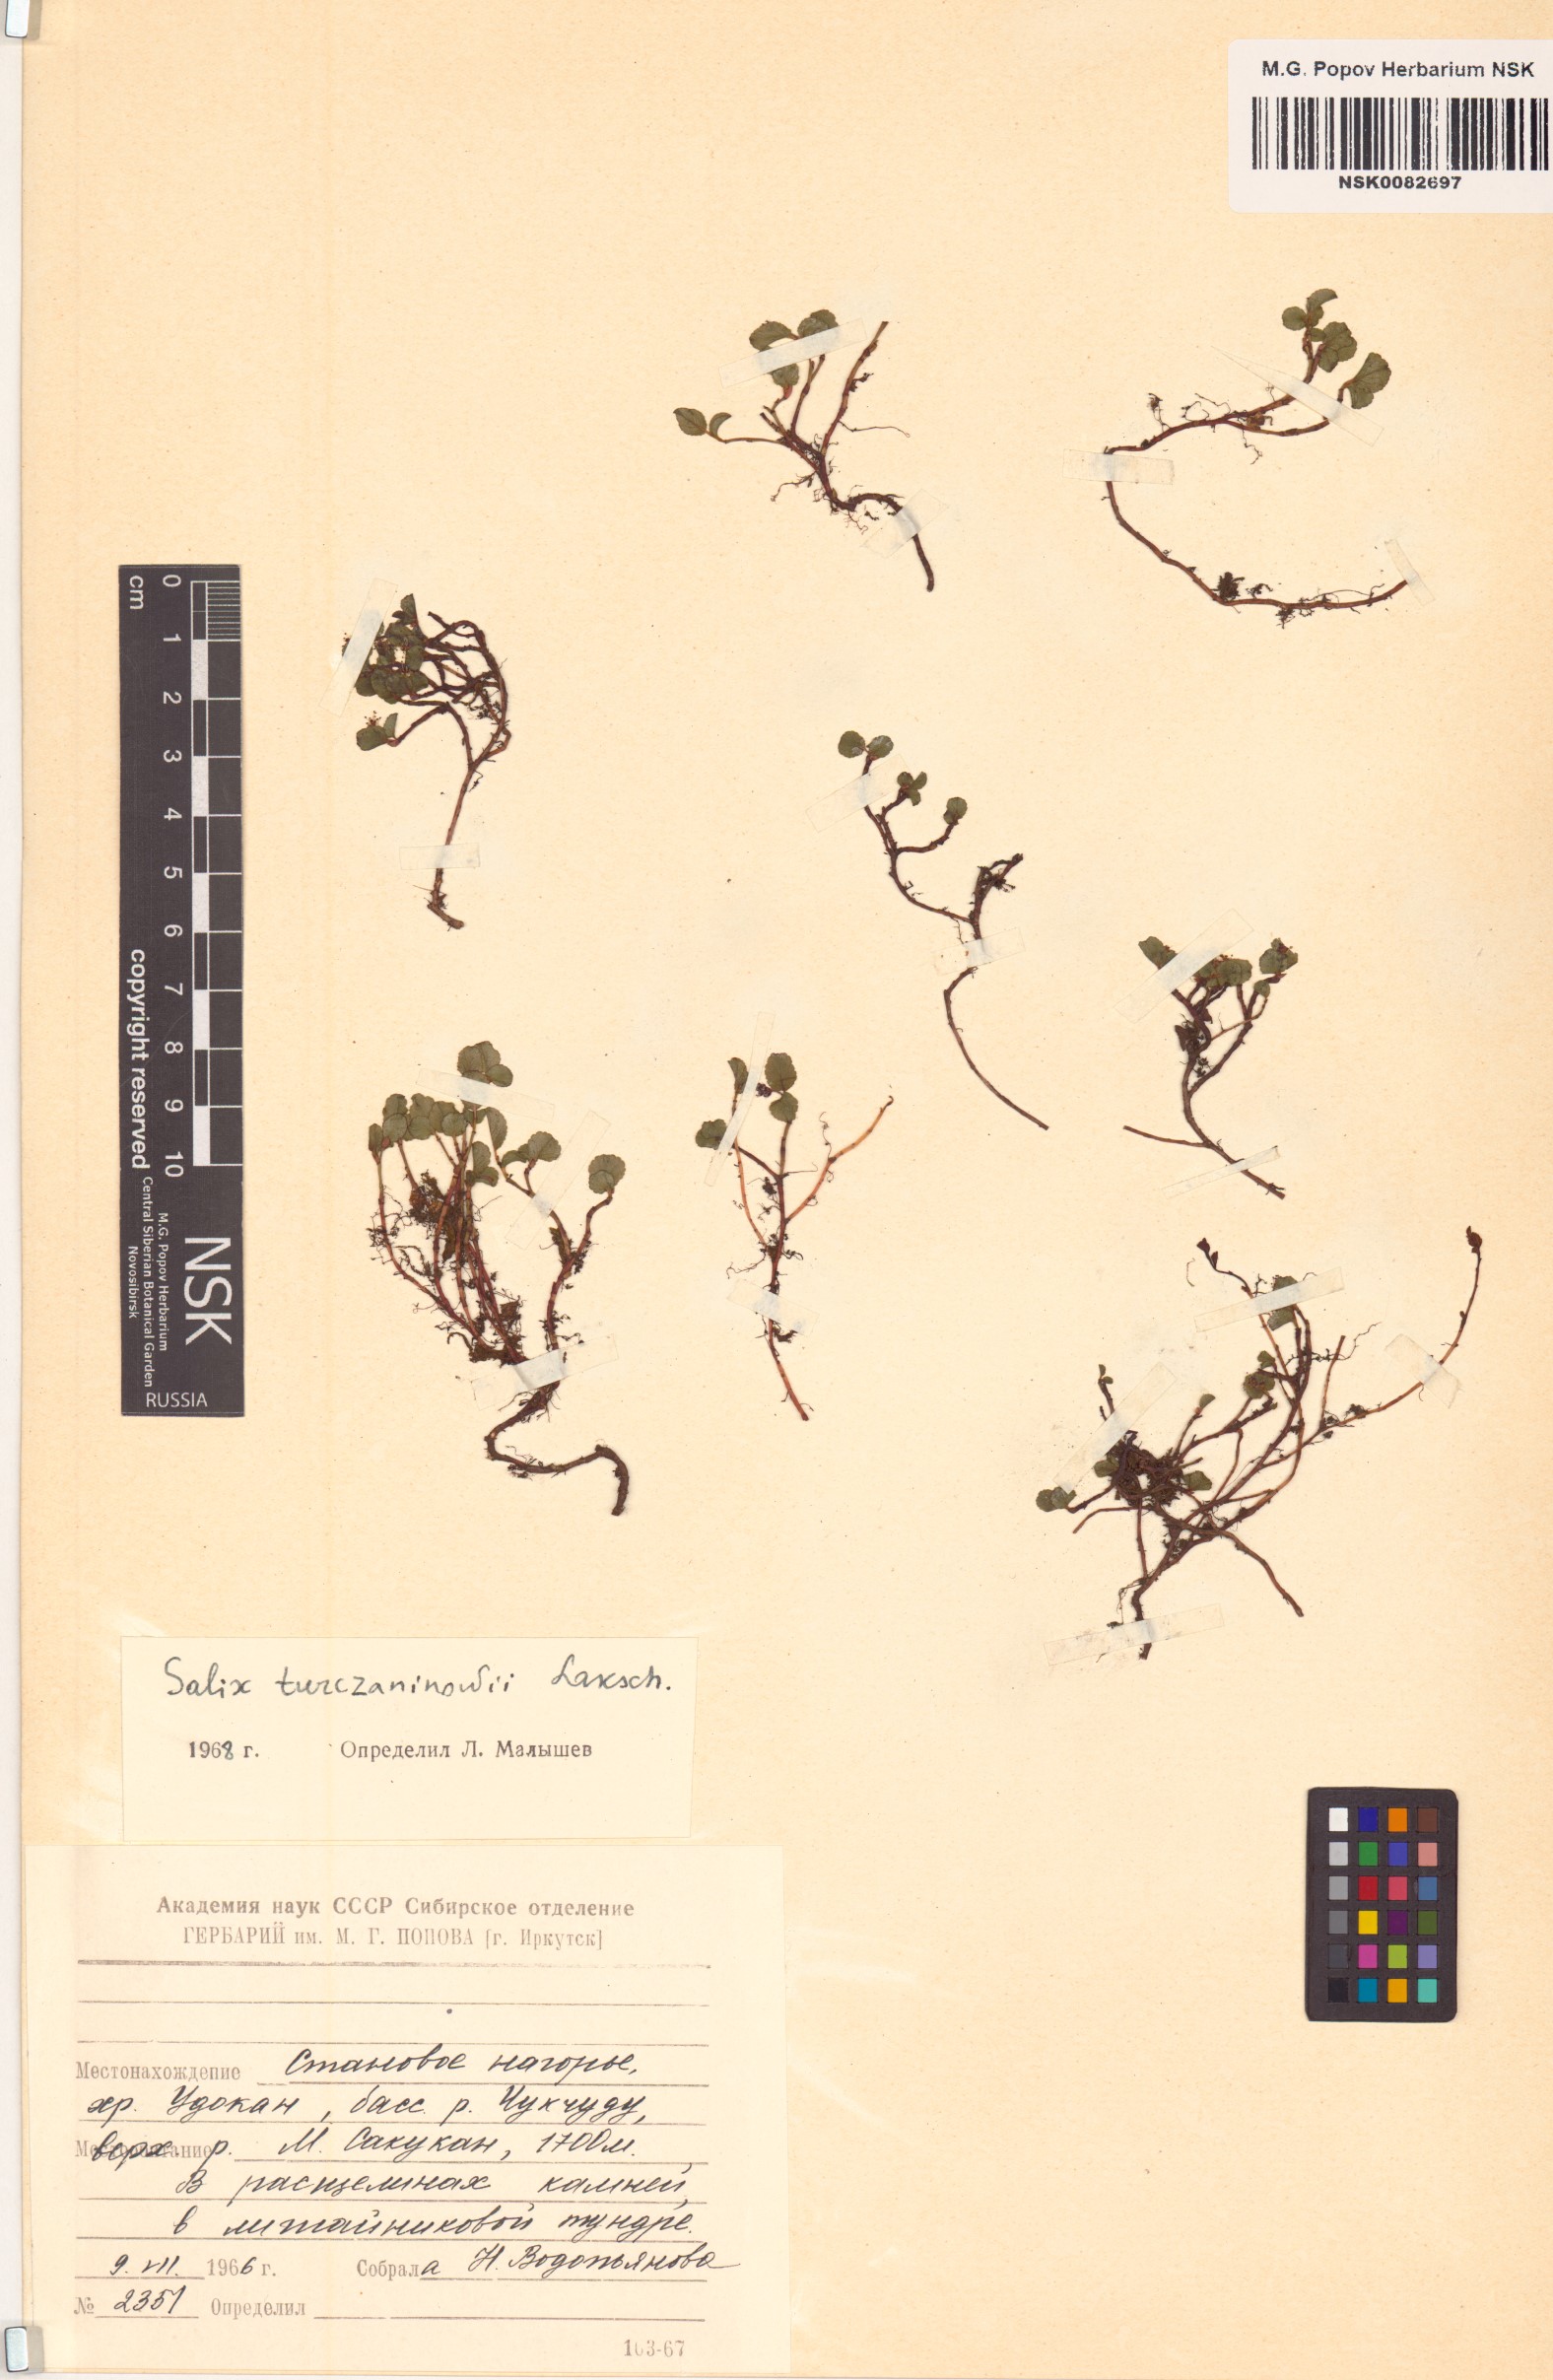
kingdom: Plantae
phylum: Tracheophyta
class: Magnoliopsida
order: Malpighiales
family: Salicaceae
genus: Salix
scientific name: Salix turczaninowii
